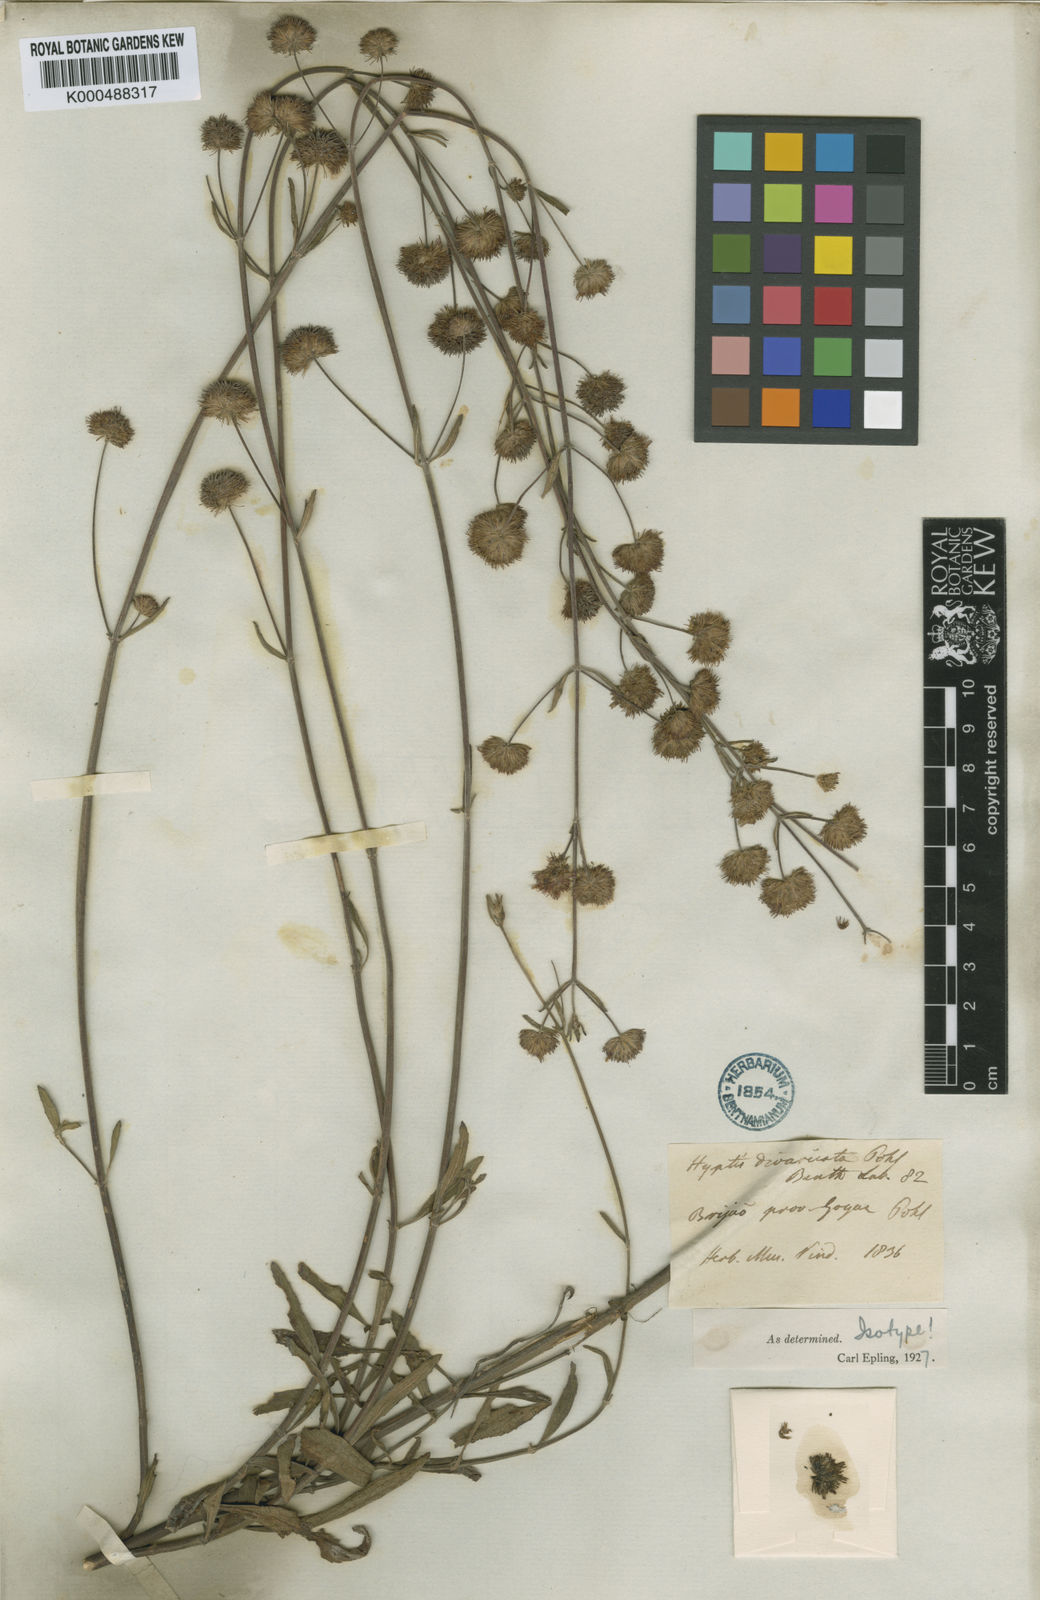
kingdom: Plantae
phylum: Tracheophyta
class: Magnoliopsida
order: Lamiales
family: Lamiaceae
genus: Hyptis
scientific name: Hyptis divaricata
